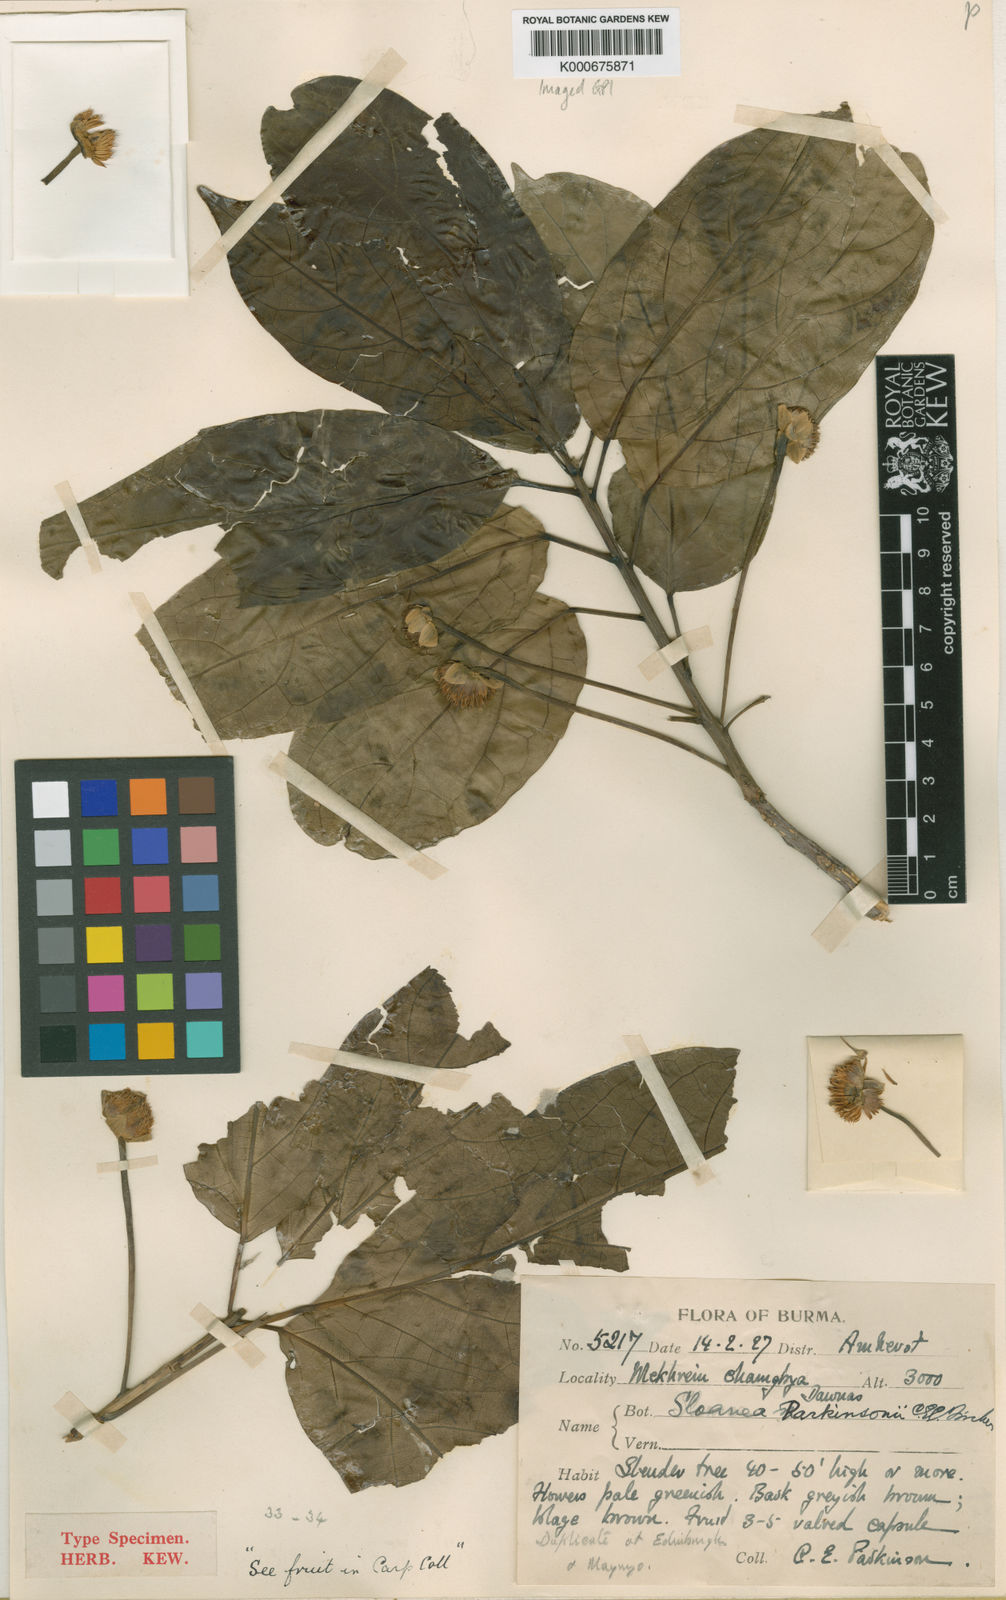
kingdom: Plantae
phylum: Tracheophyta
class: Magnoliopsida
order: Oxalidales
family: Elaeocarpaceae
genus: Sloanea
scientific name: Sloanea parkinsonii
